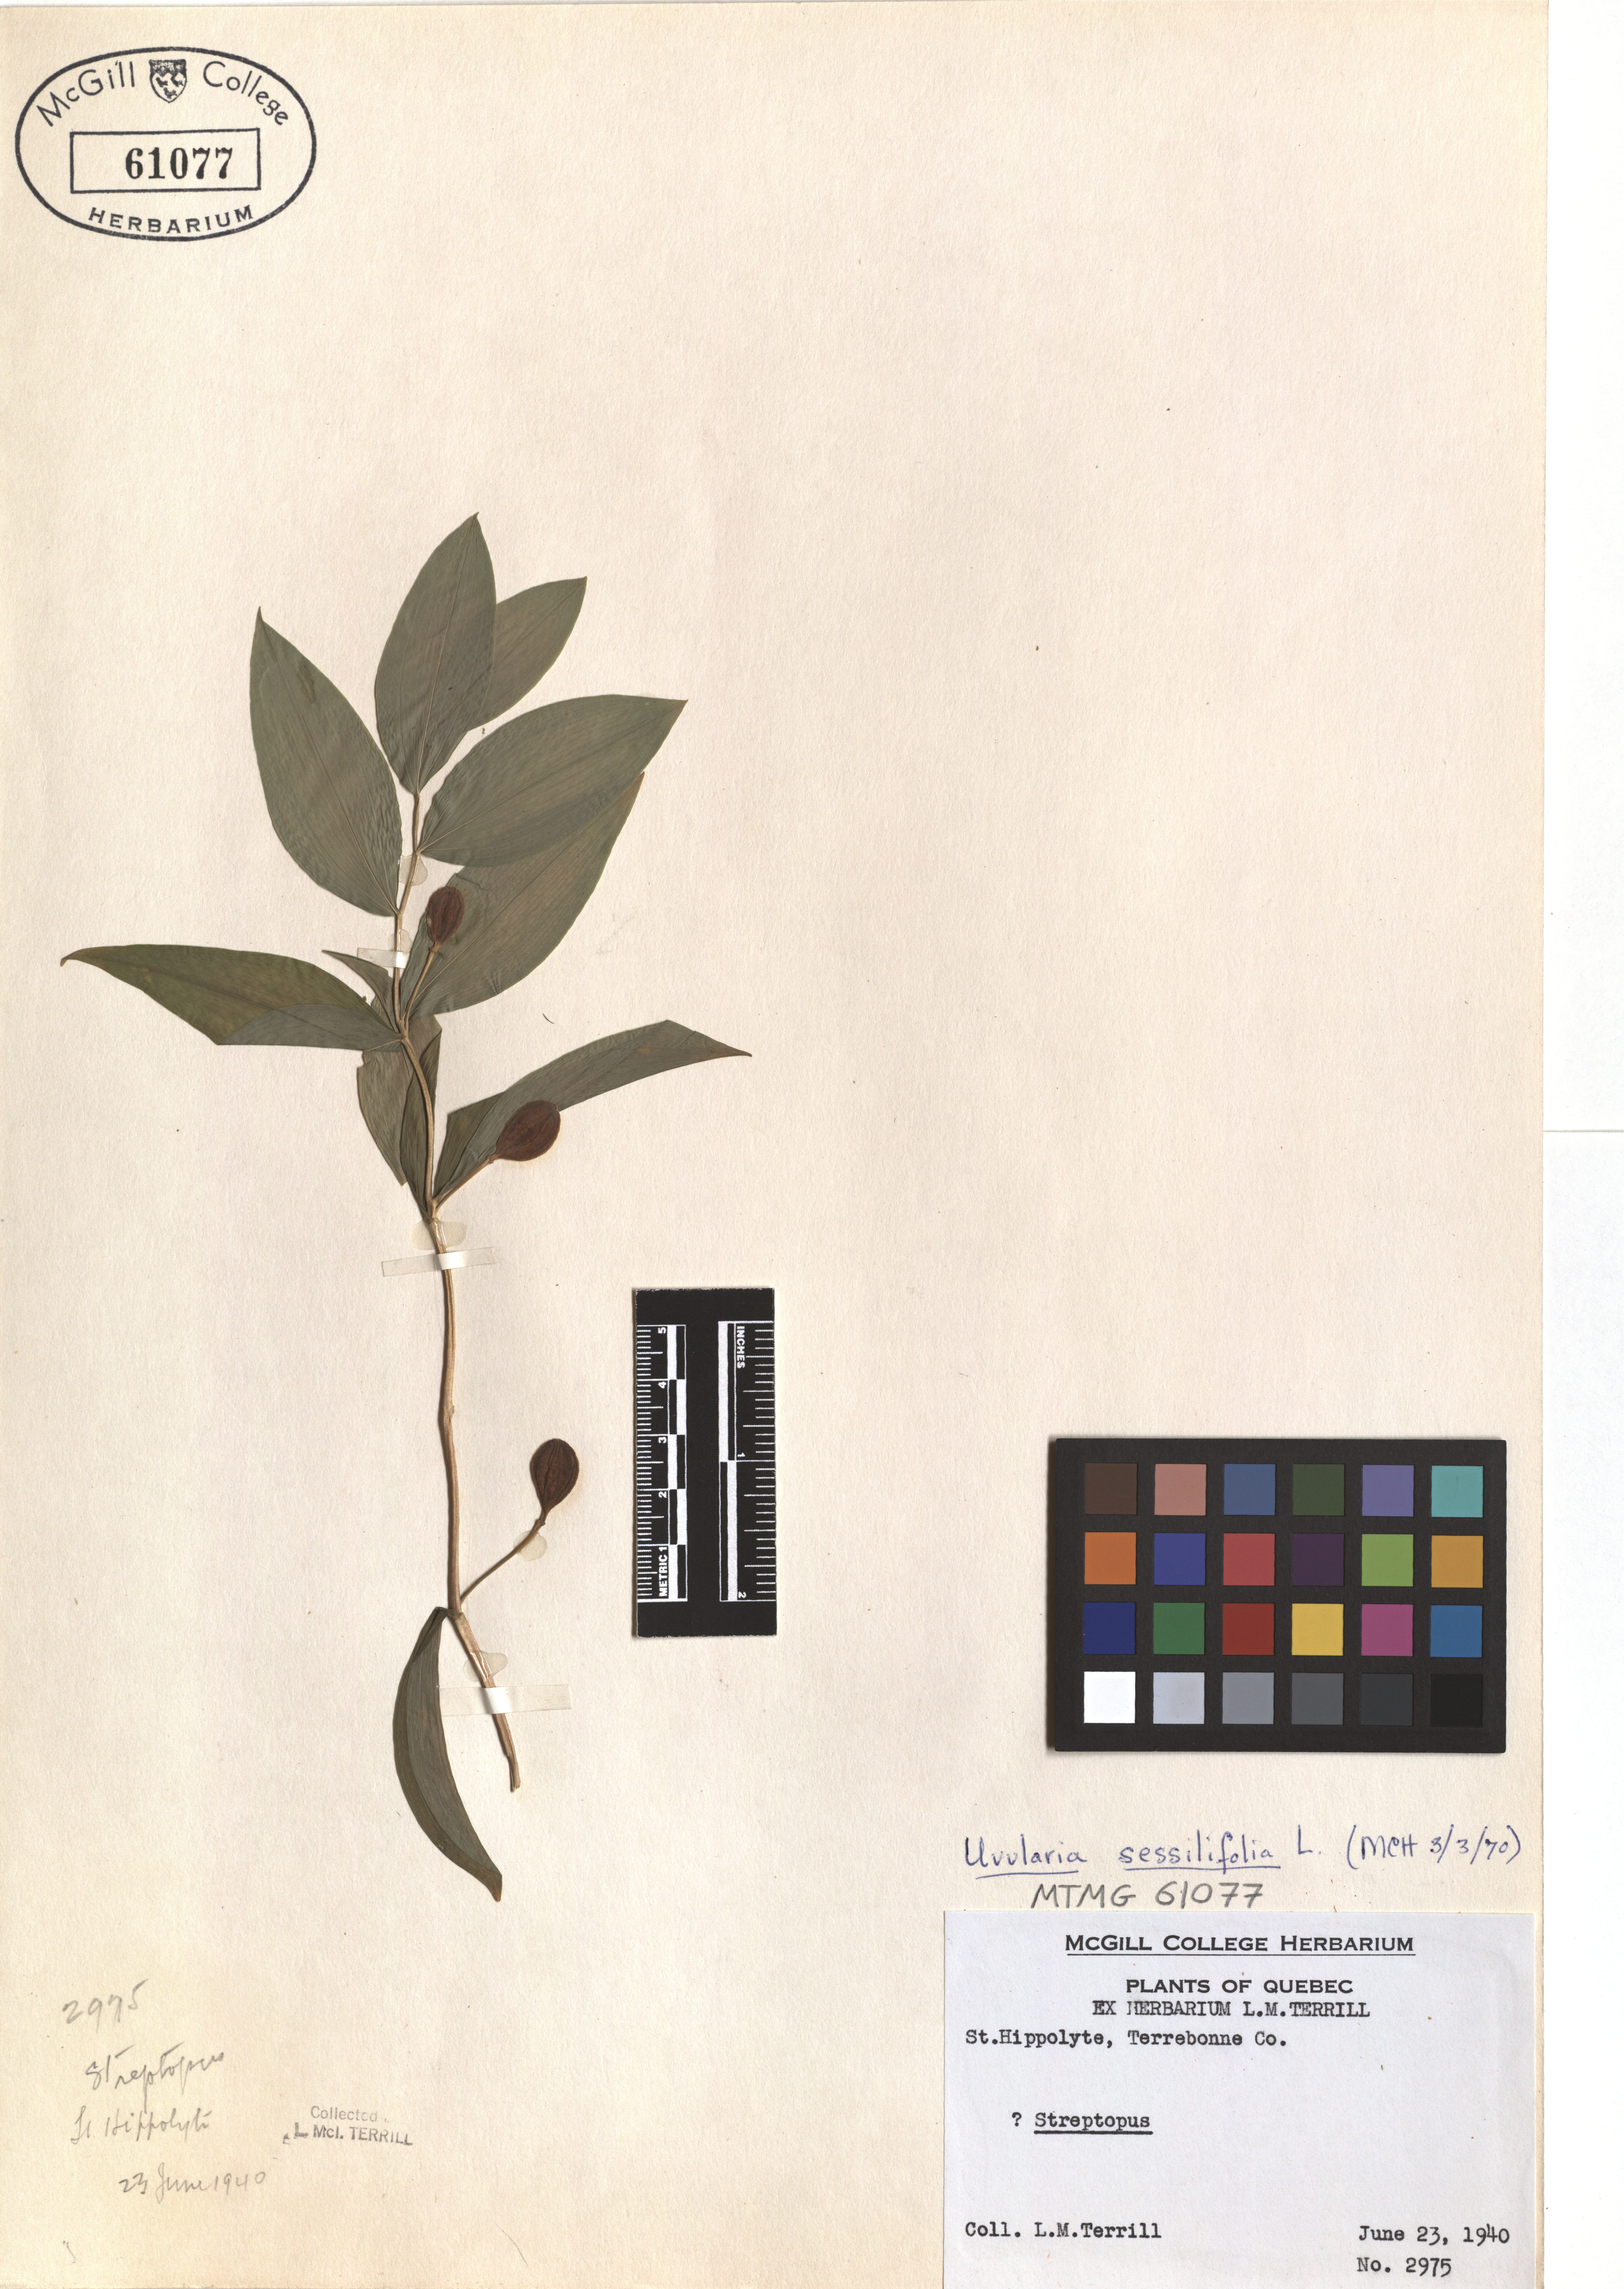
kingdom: Plantae
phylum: Tracheophyta
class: Liliopsida
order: Liliales
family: Colchicaceae
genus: Uvularia
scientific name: Uvularia sessilifolia
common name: Straw-lily
